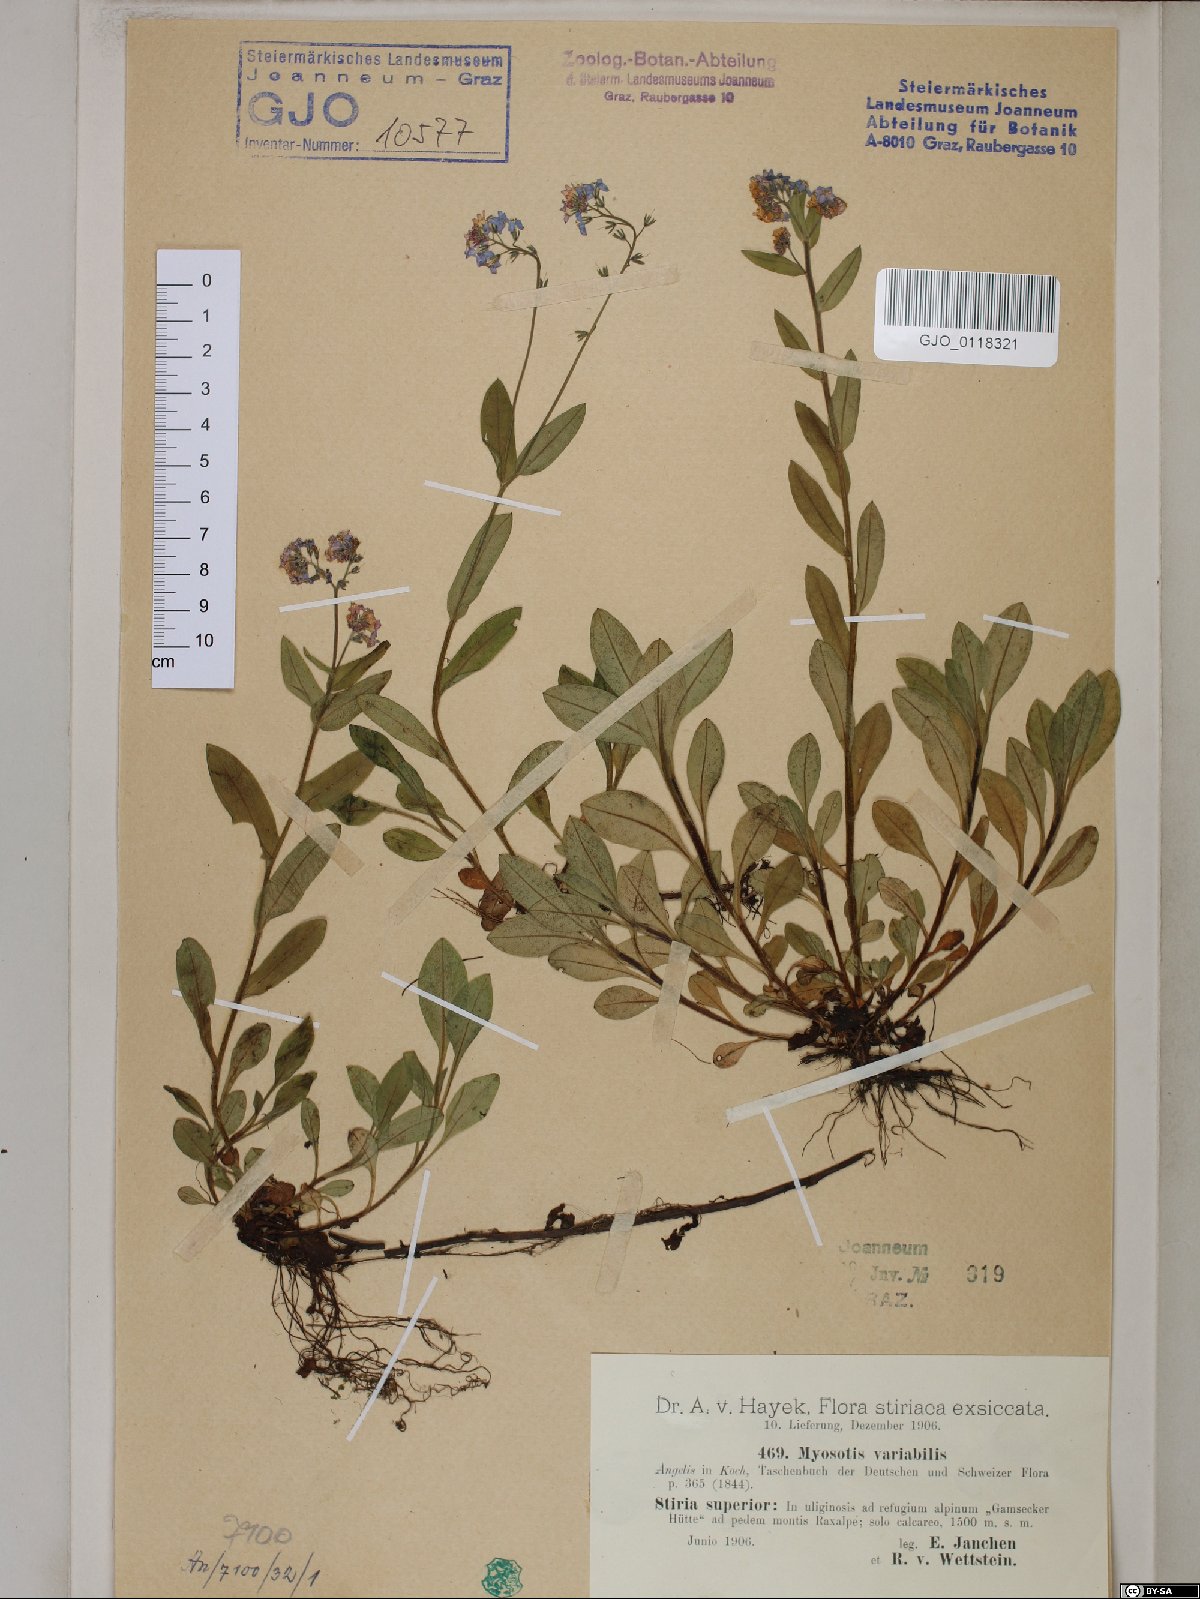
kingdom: Plantae
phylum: Tracheophyta
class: Magnoliopsida
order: Boraginales
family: Boraginaceae
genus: Myosotis
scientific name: Myosotis decumbens
